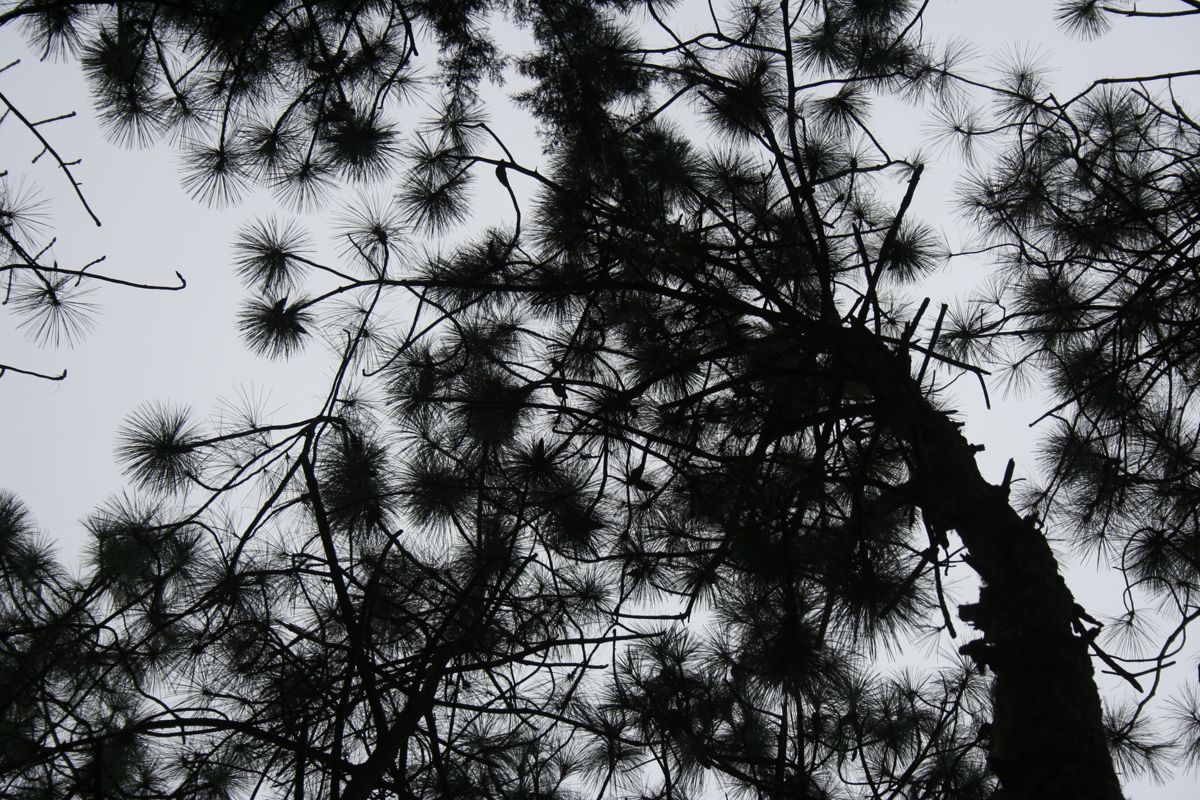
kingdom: Plantae
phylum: Tracheophyta
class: Pinopsida
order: Pinales
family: Pinaceae
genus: Pinus
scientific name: Pinus devoniana
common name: Michoacan pine
